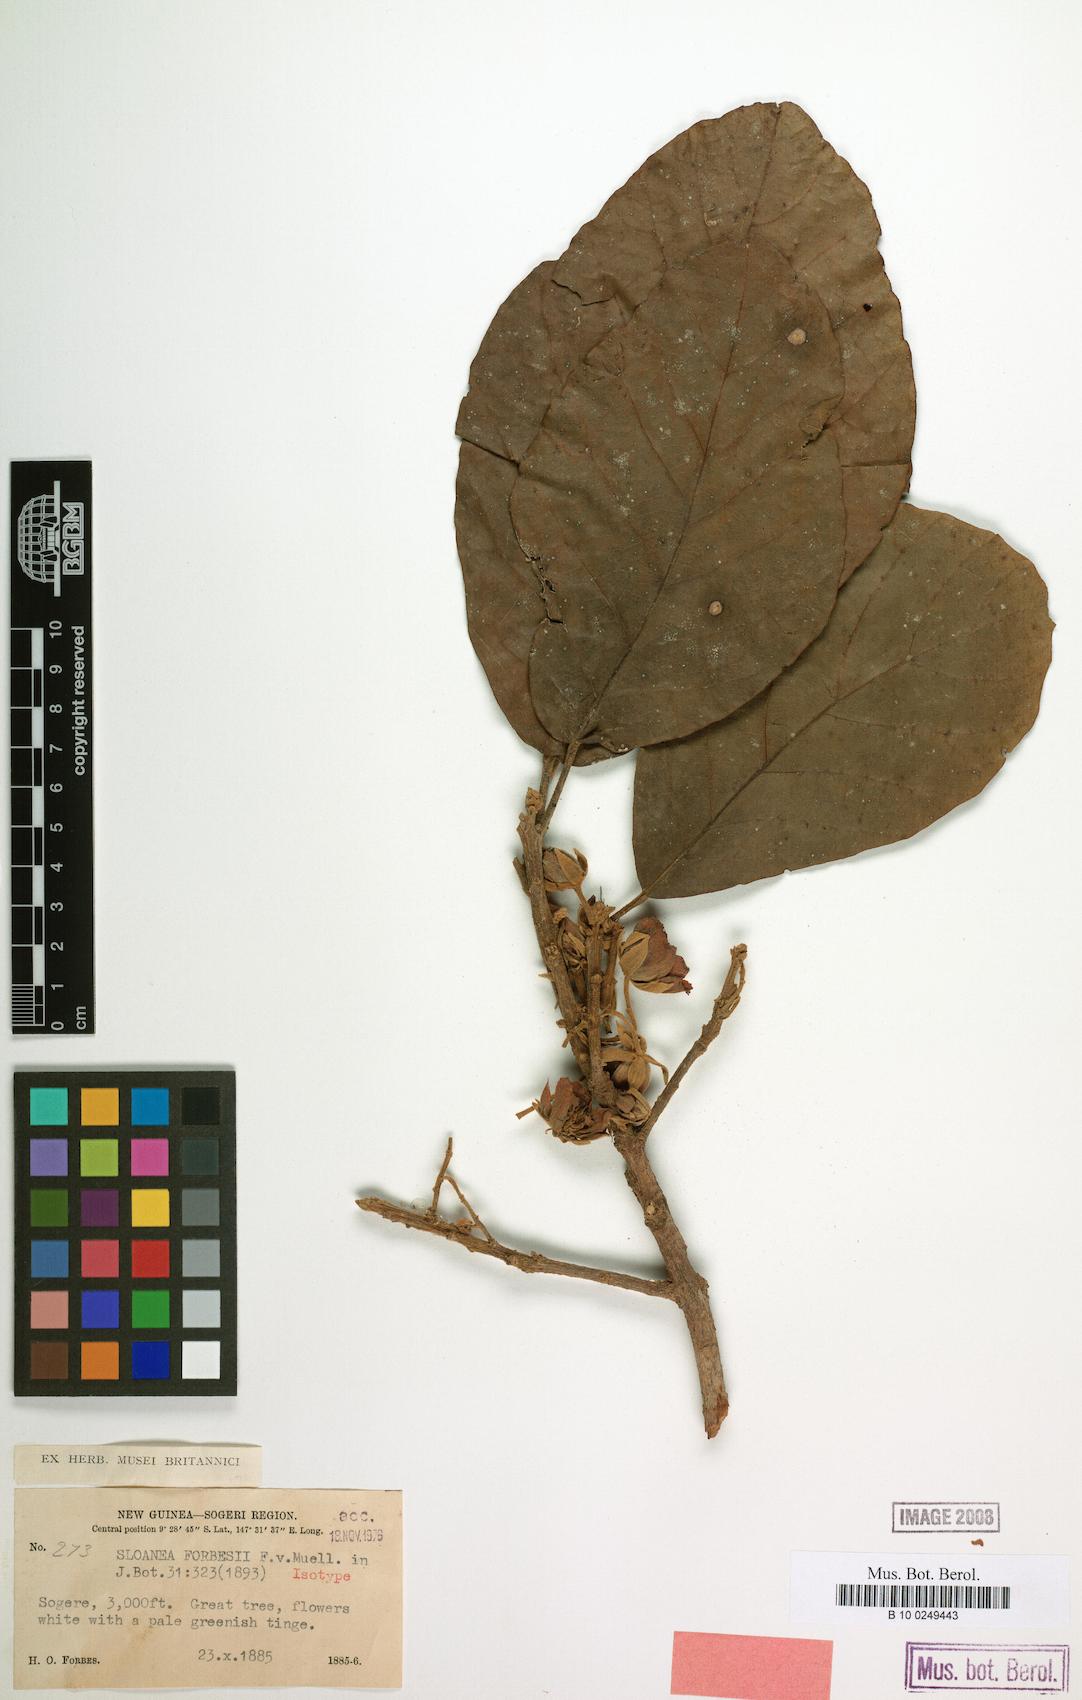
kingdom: Plantae
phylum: Tracheophyta
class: Magnoliopsida
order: Oxalidales
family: Elaeocarpaceae
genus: Sloanea
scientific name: Sloanea forbesii
